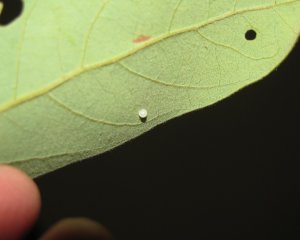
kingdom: Animalia
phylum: Arthropoda
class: Insecta
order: Lepidoptera
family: Papilionidae
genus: Pterourus
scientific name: Pterourus palamedes
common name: Palamedes Swallowtail
